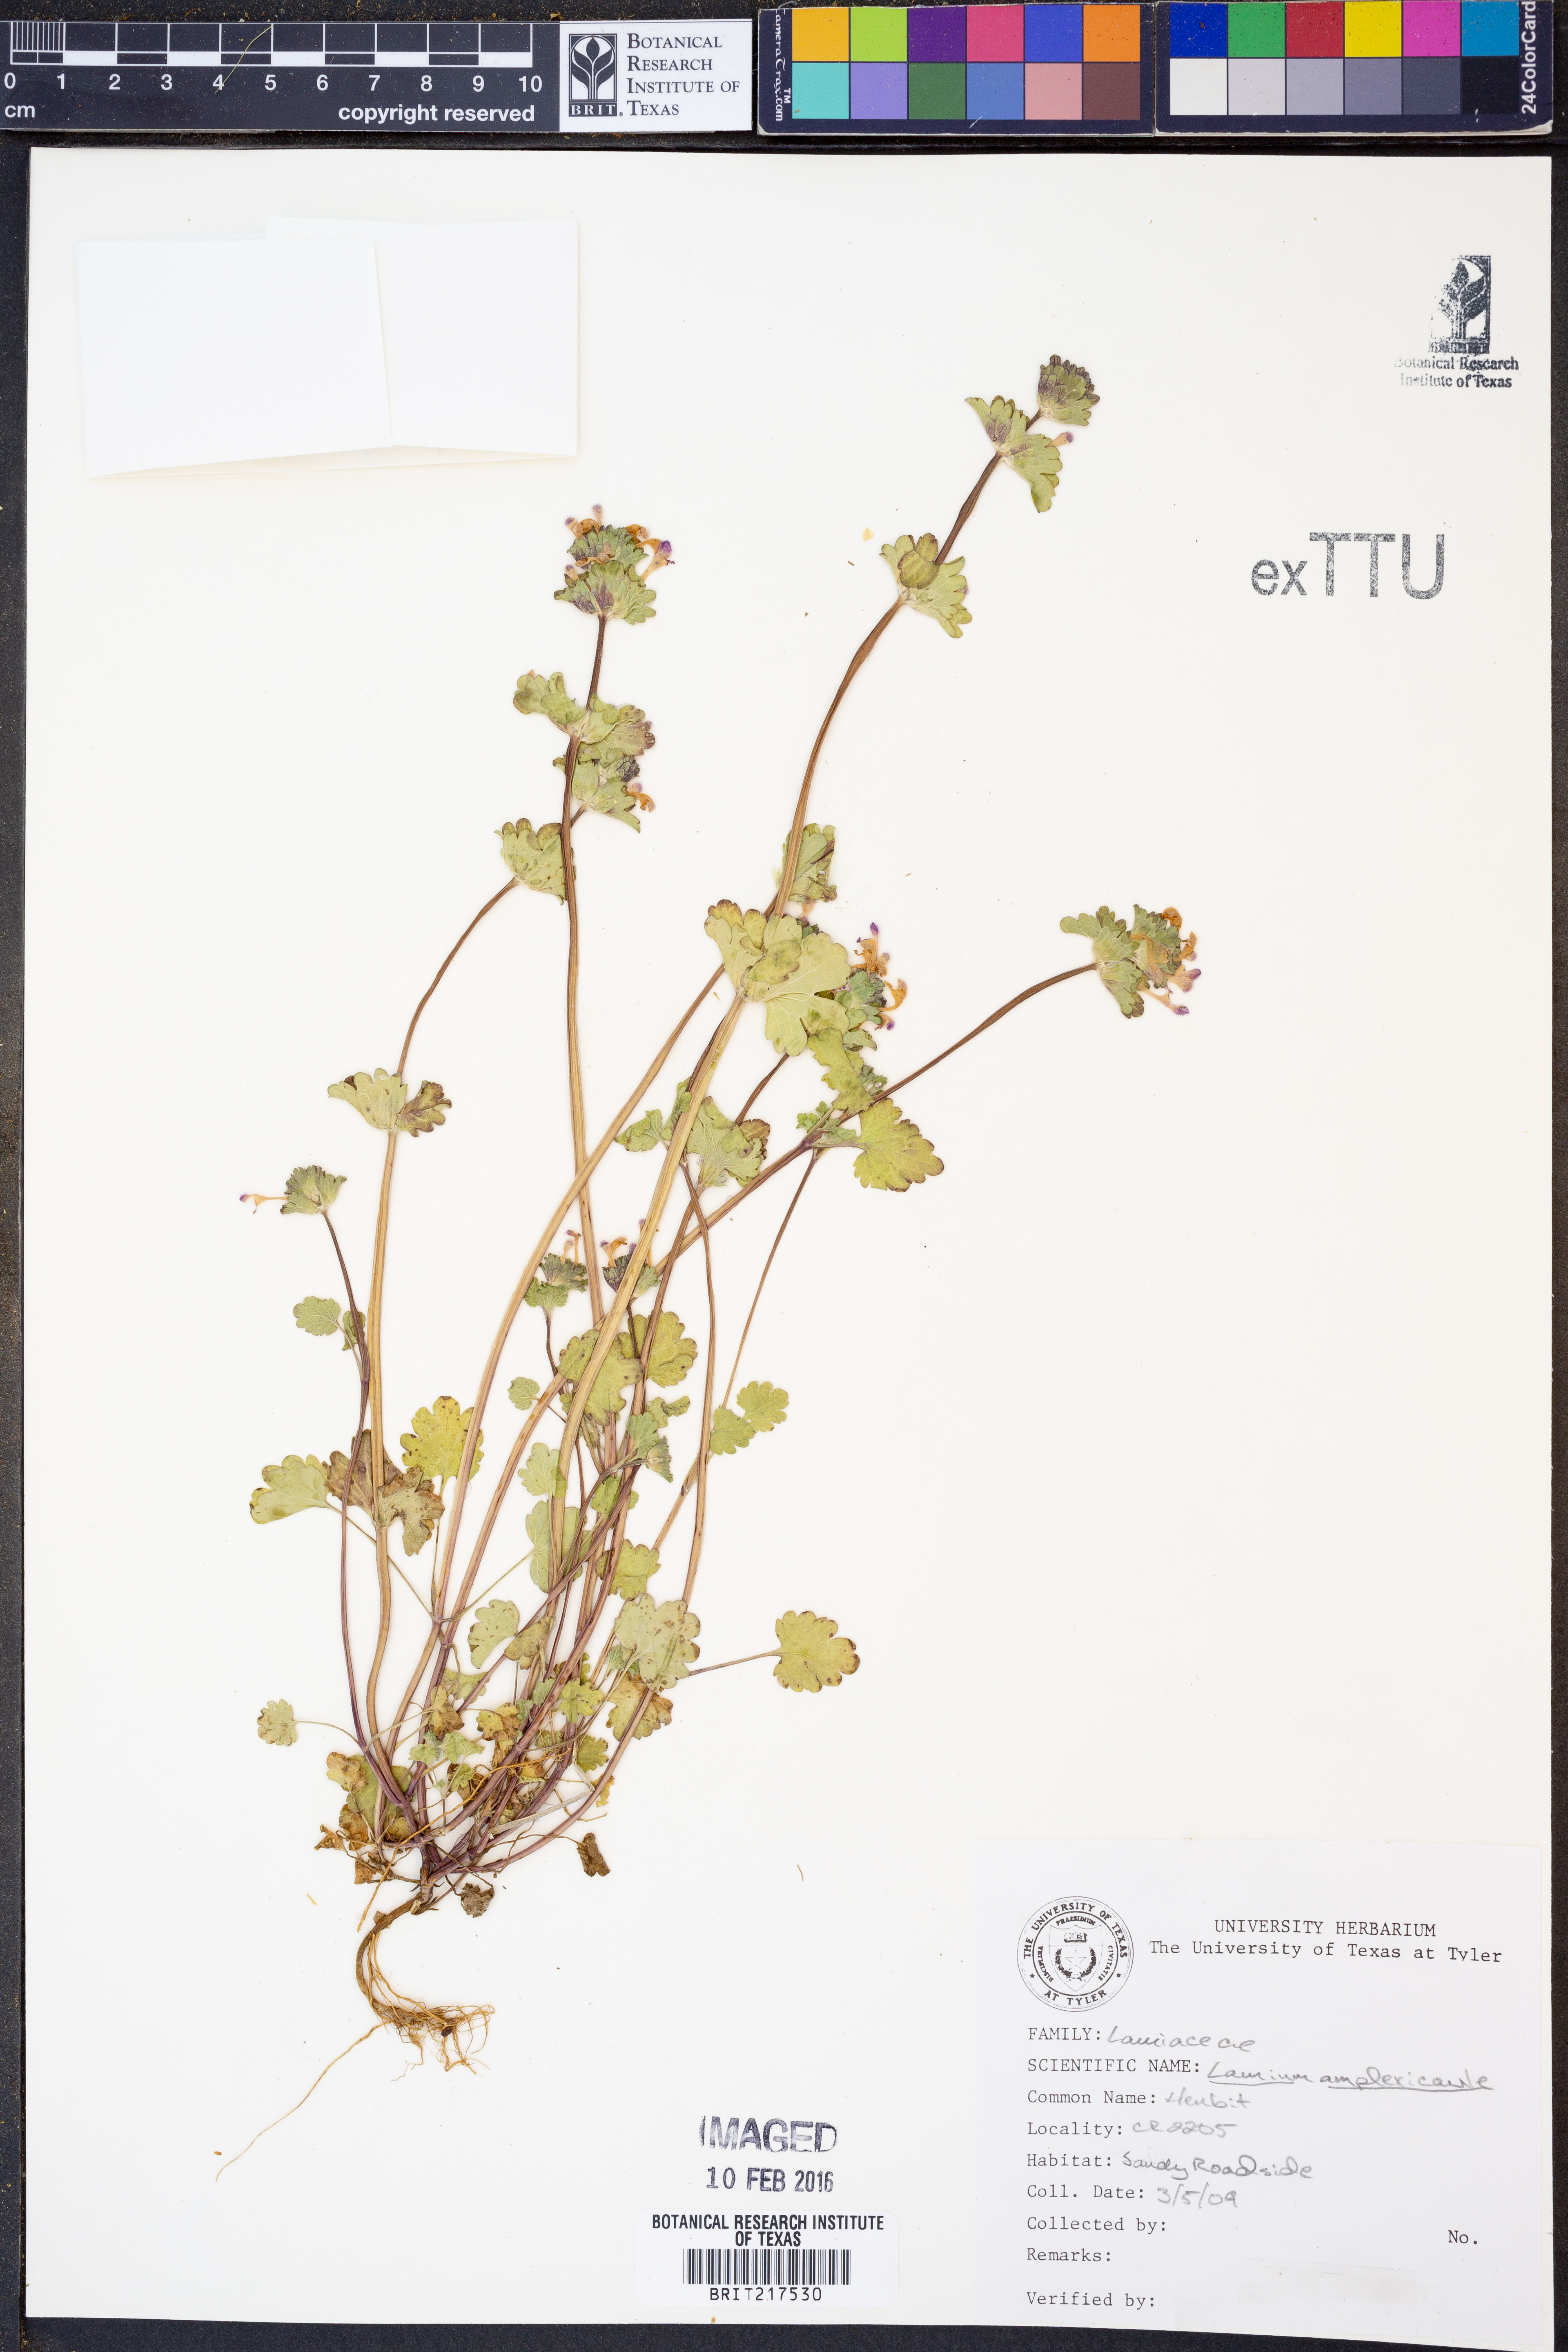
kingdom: Plantae
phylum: Tracheophyta
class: Magnoliopsida
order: Lamiales
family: Lamiaceae
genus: Lamium
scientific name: Lamium amplexicaule
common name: Henbit dead-nettle
